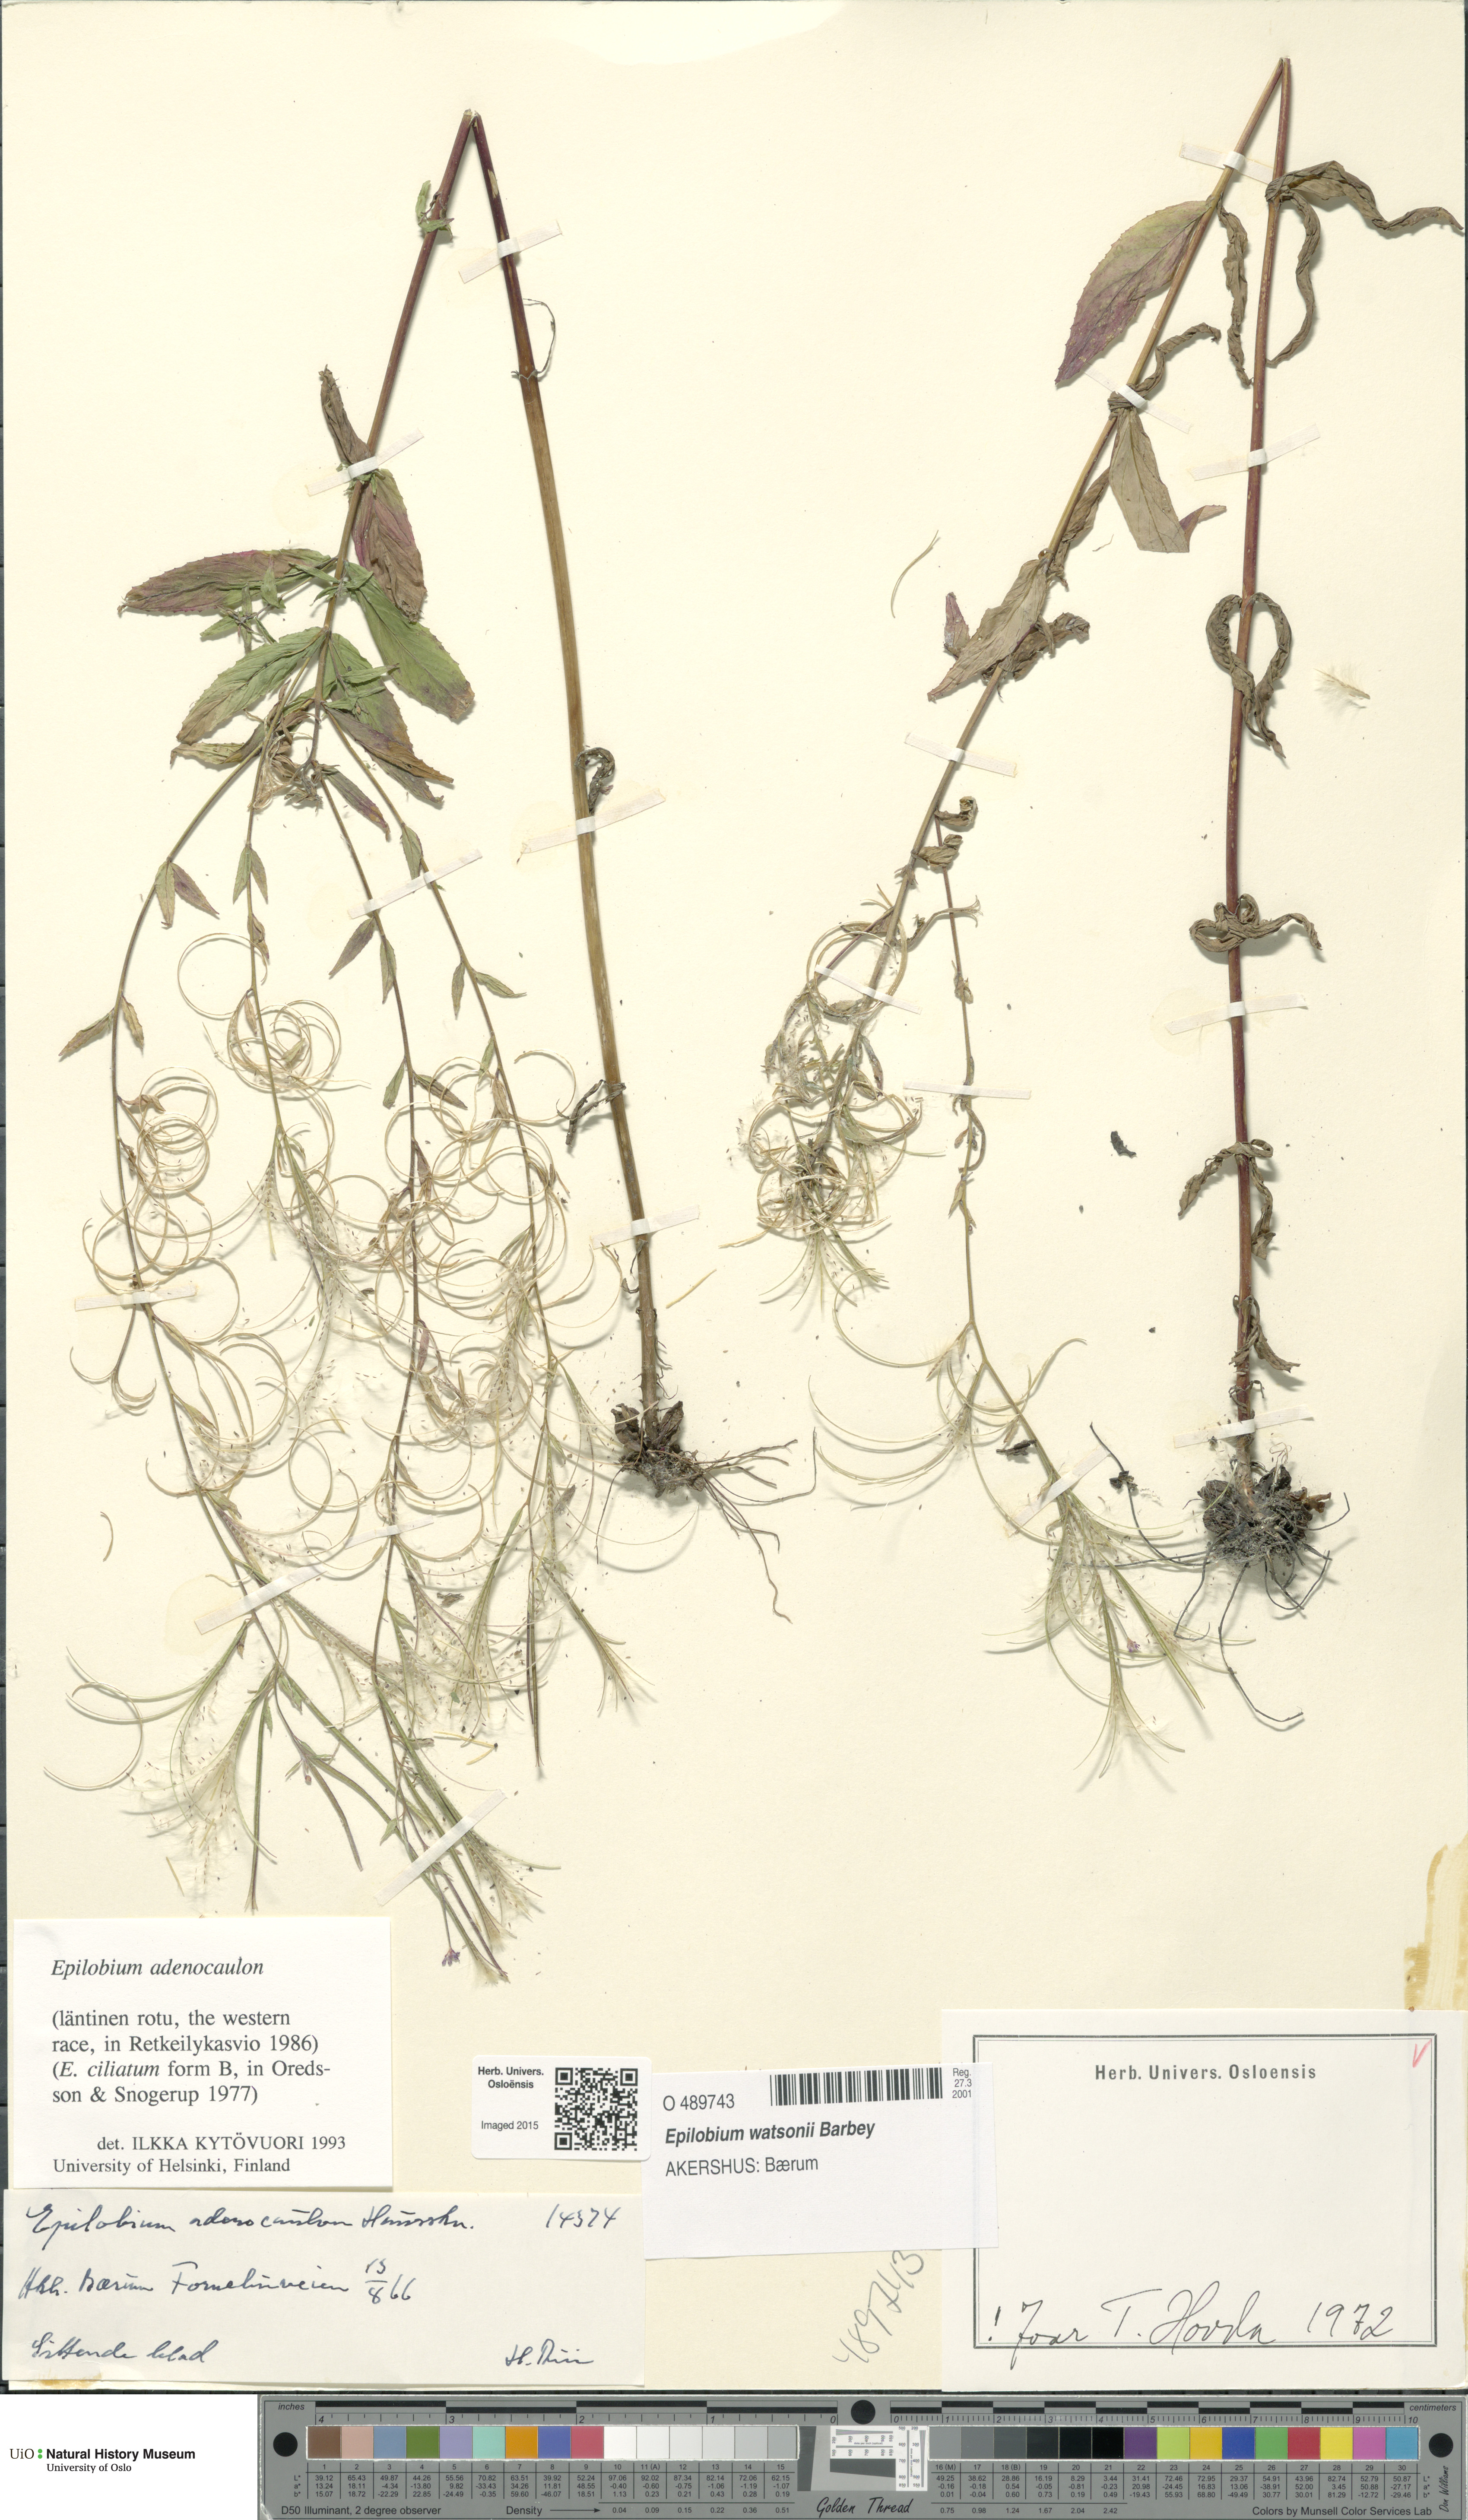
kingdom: Plantae
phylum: Tracheophyta
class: Magnoliopsida
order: Myrtales
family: Onagraceae
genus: Epilobium
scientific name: Epilobium ciliatum
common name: American willowherb
